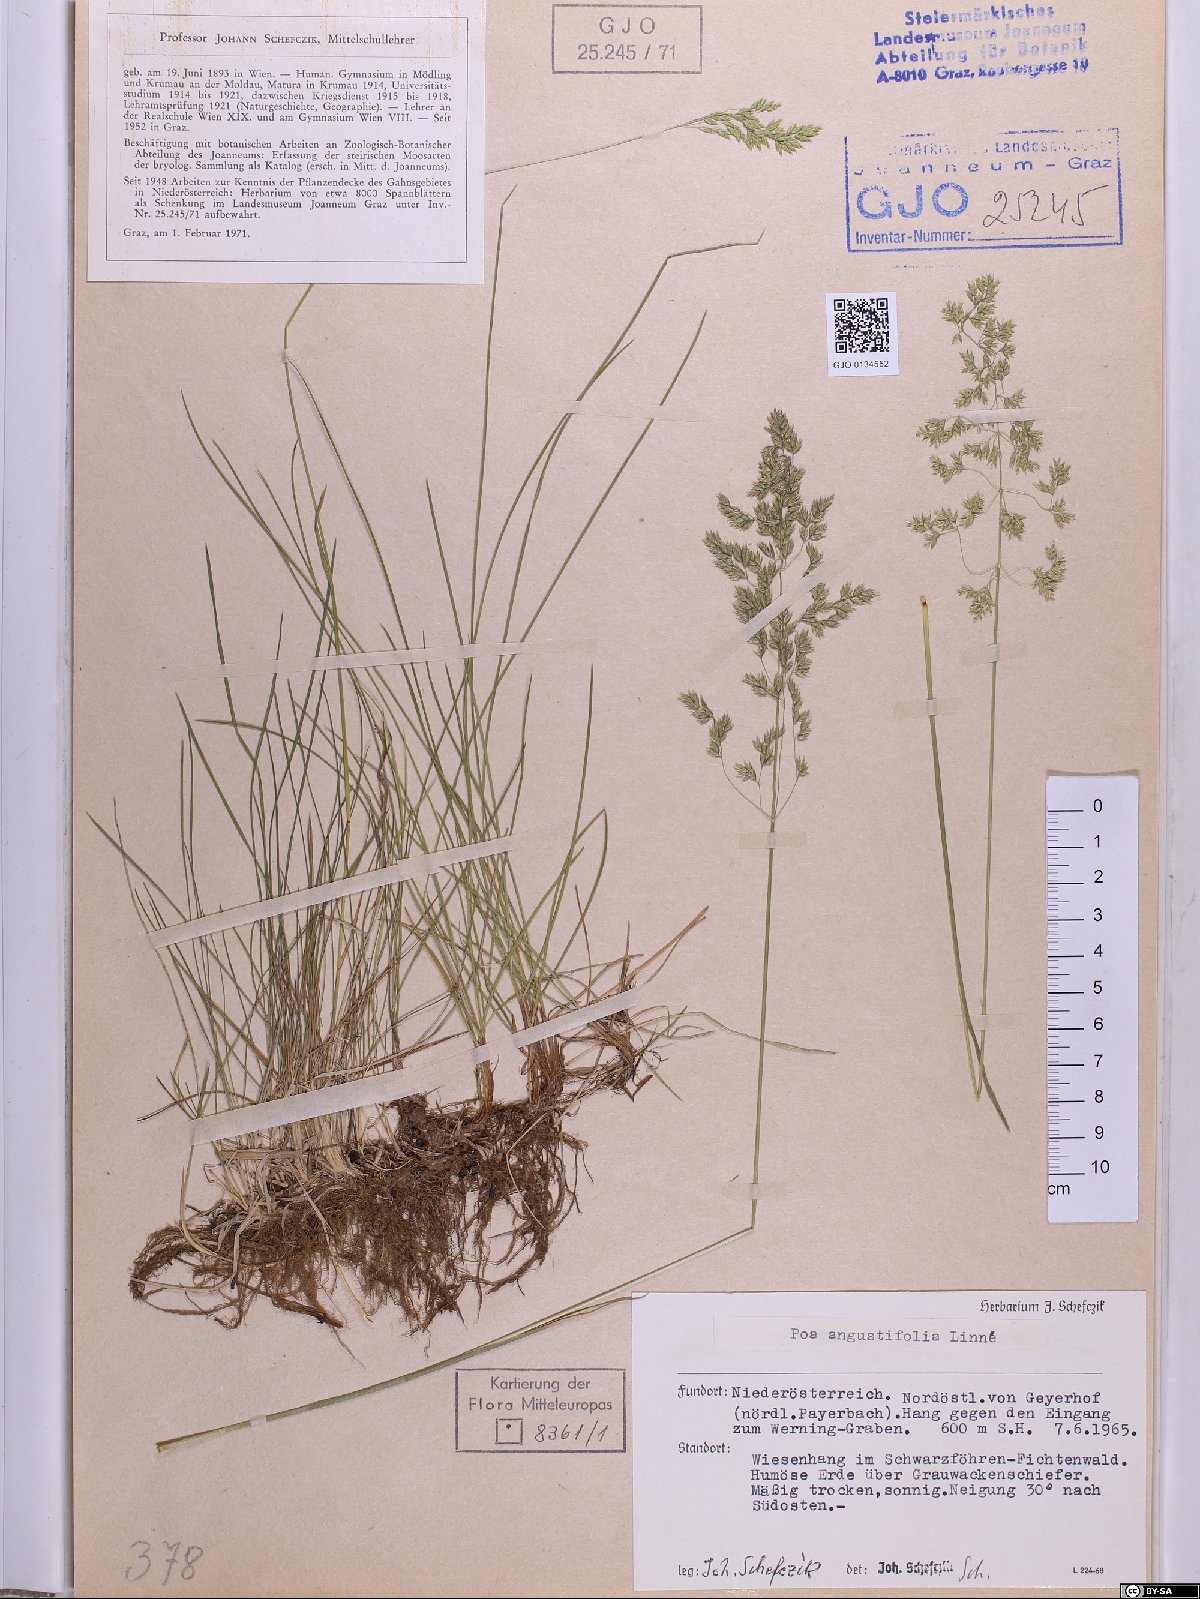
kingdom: Plantae
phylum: Tracheophyta
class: Liliopsida
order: Poales
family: Poaceae
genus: Poa
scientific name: Poa angustifolia
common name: Narrow-leaved meadow-grass
